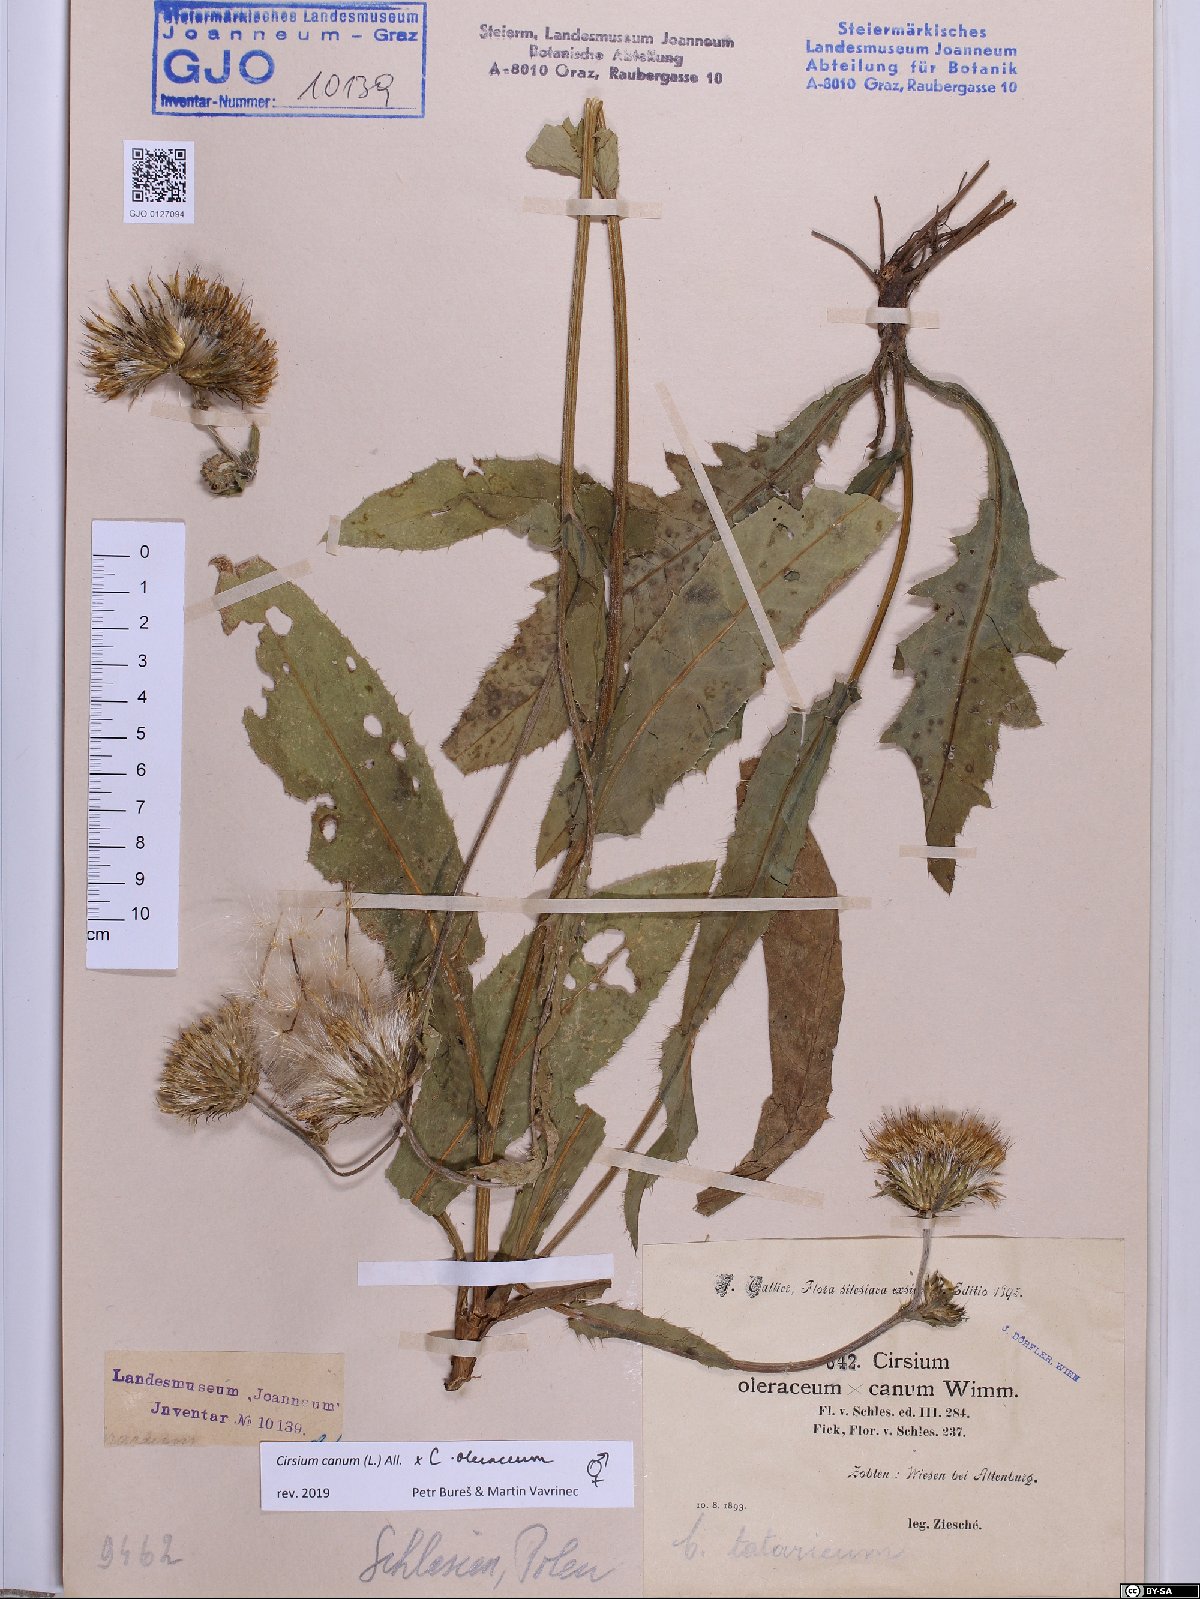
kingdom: Plantae
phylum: Tracheophyta
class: Magnoliopsida
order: Asterales
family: Asteraceae
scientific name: Asteraceae
